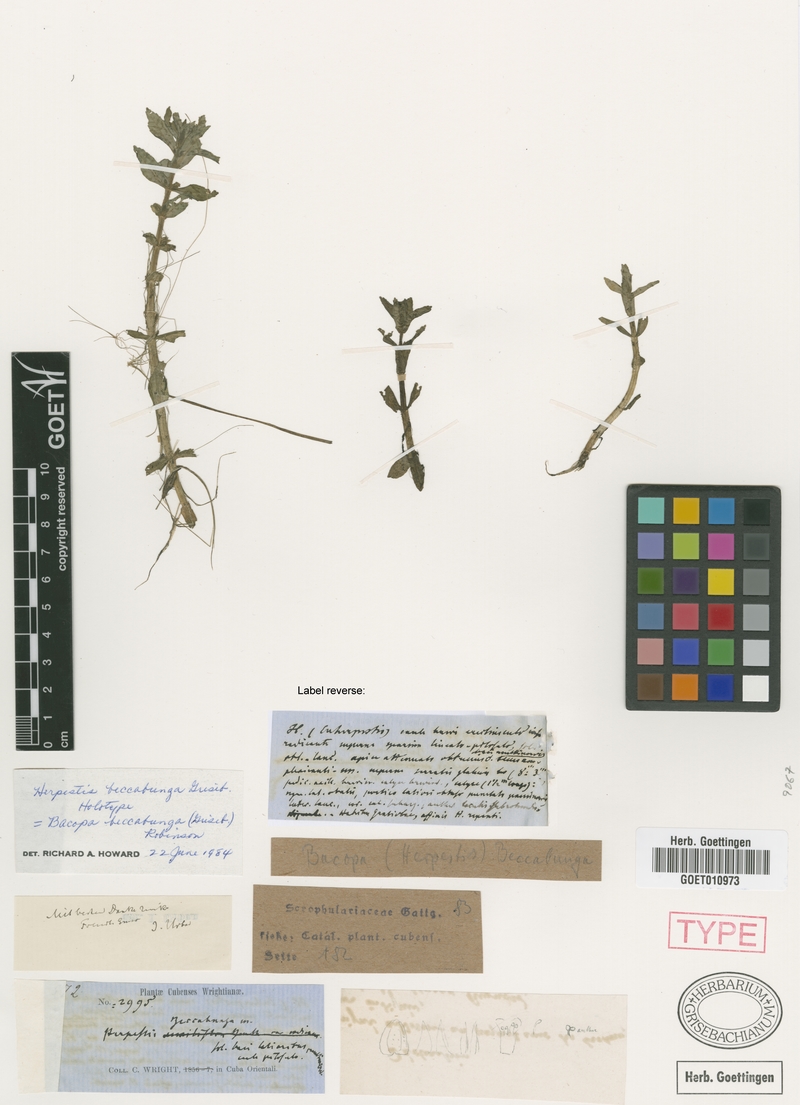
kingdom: Plantae
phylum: Tracheophyta
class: Magnoliopsida
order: Lamiales
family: Plantaginaceae
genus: Bacopa
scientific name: Bacopa beccabunga
